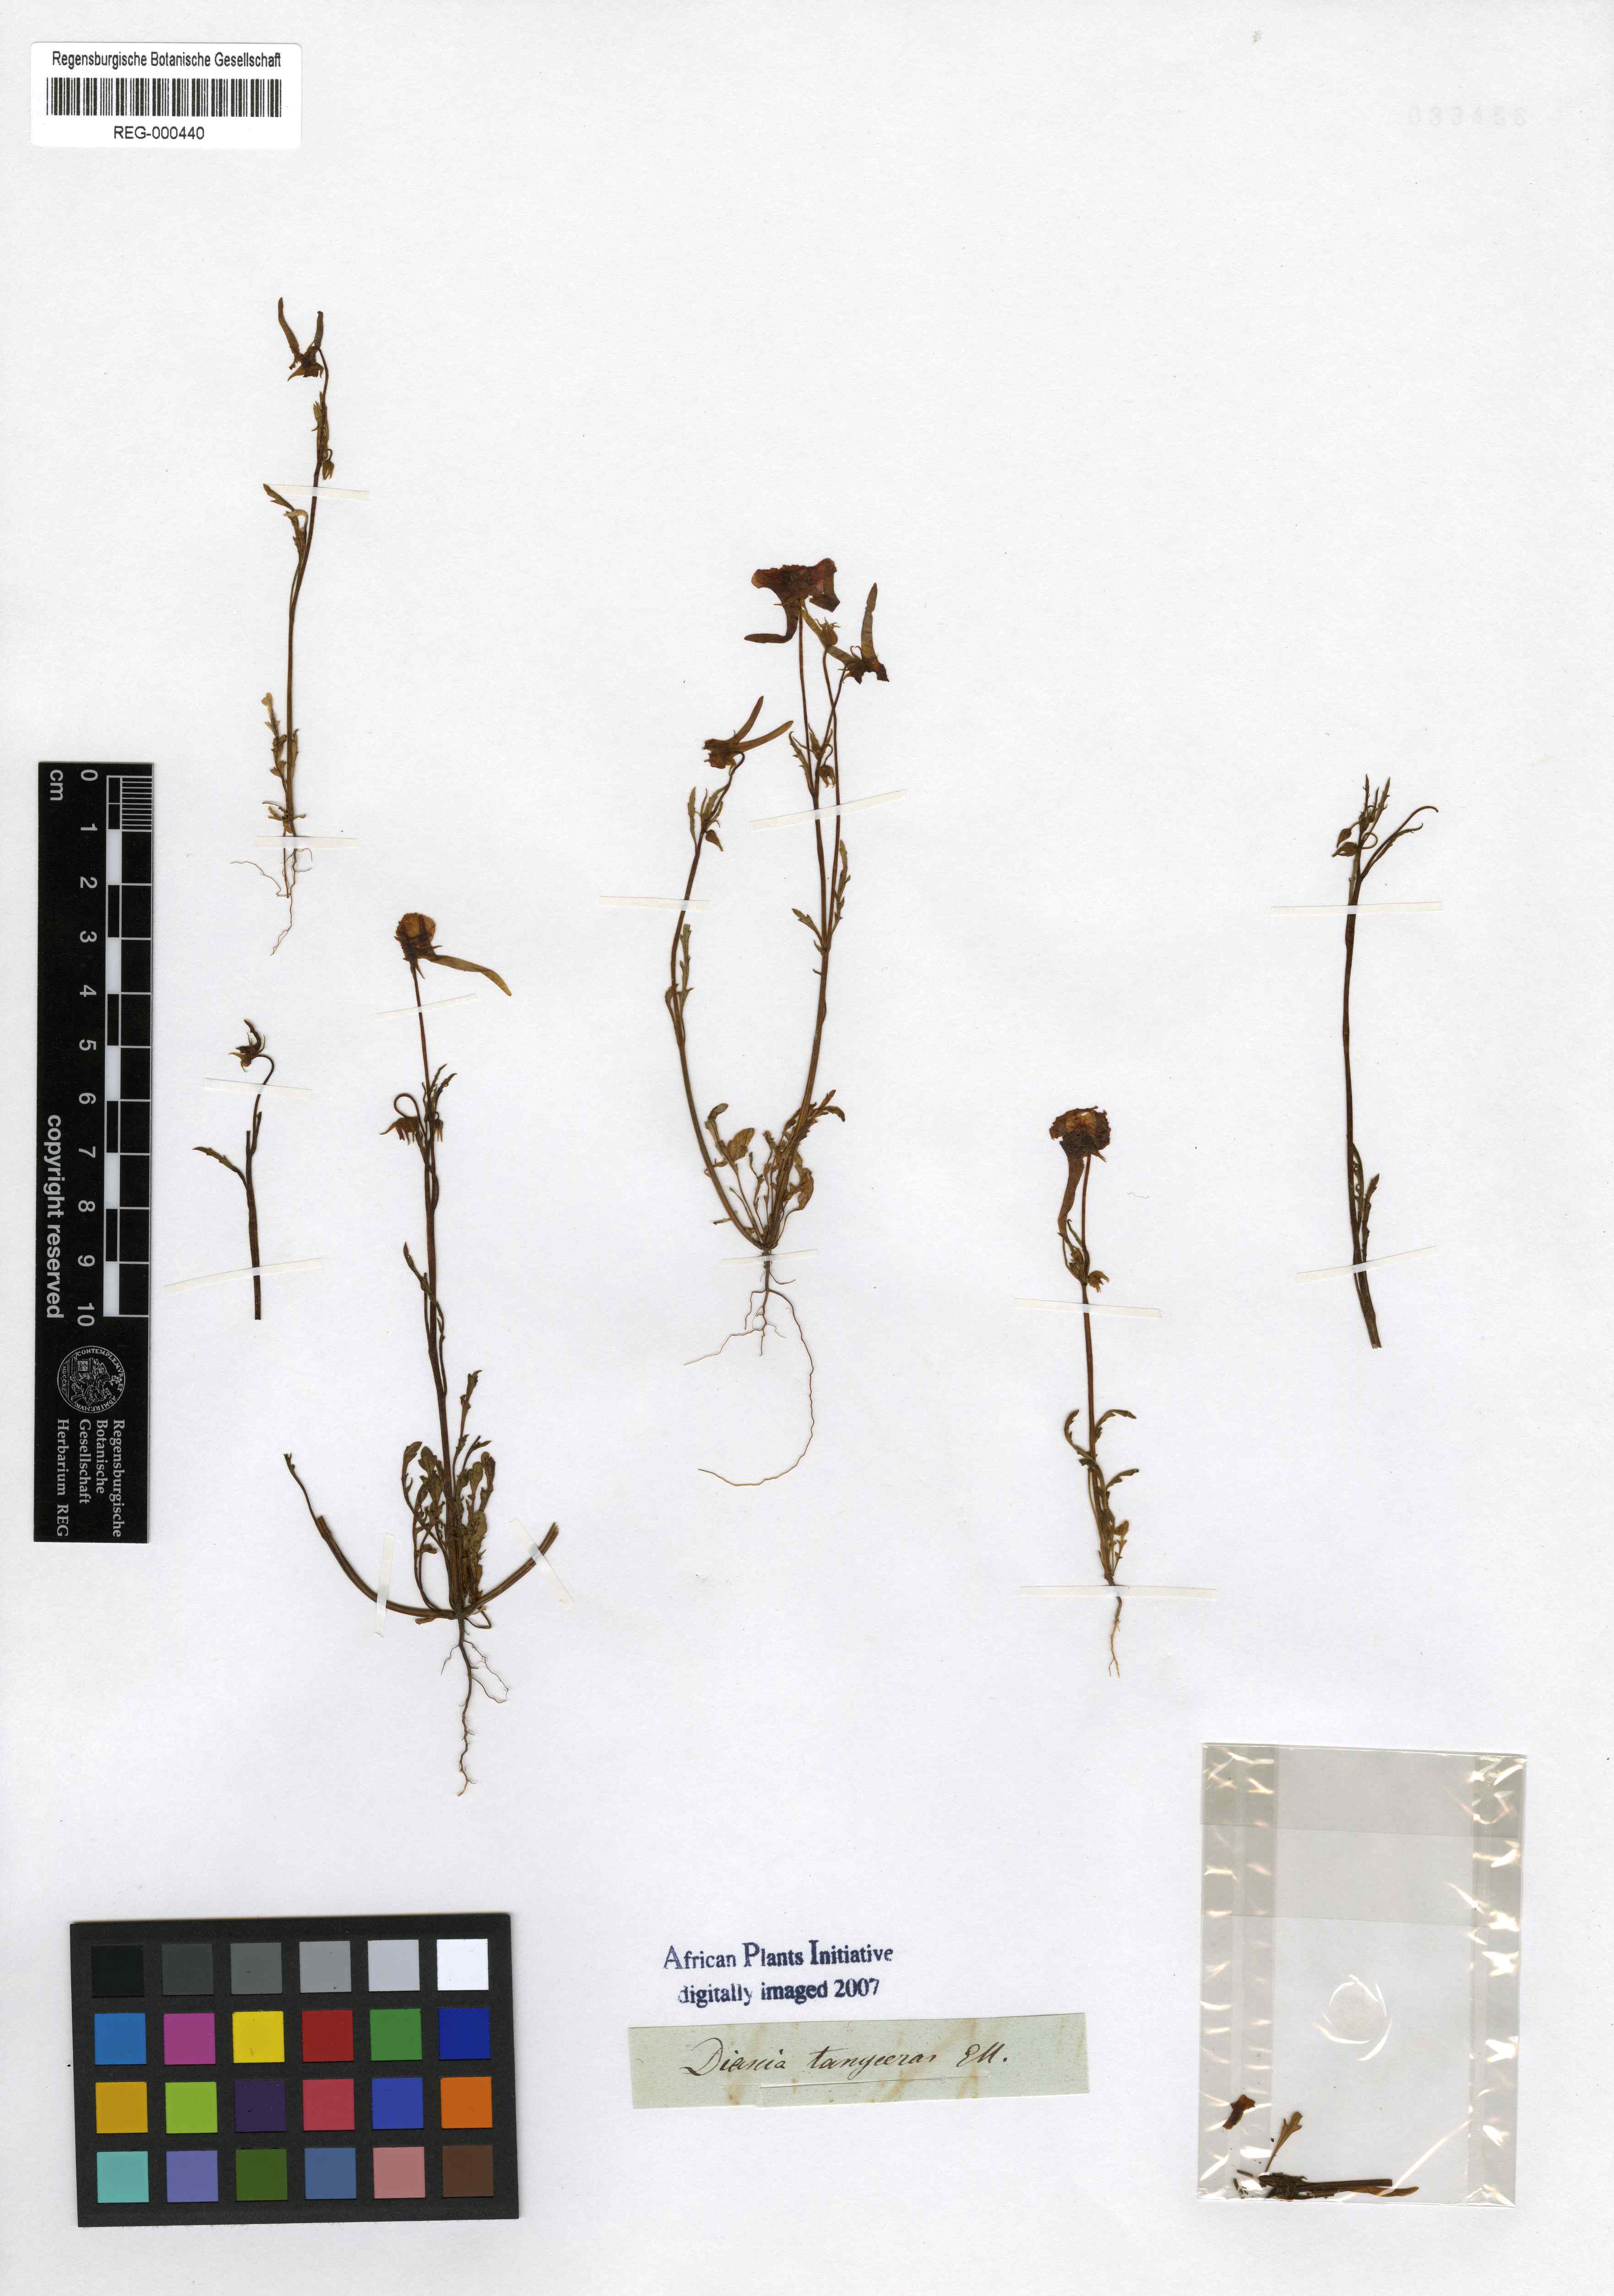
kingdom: Plantae
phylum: Tracheophyta
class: Magnoliopsida
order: Lamiales
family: Scrophulariaceae
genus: Diascia
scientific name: Diascia tanyceras
